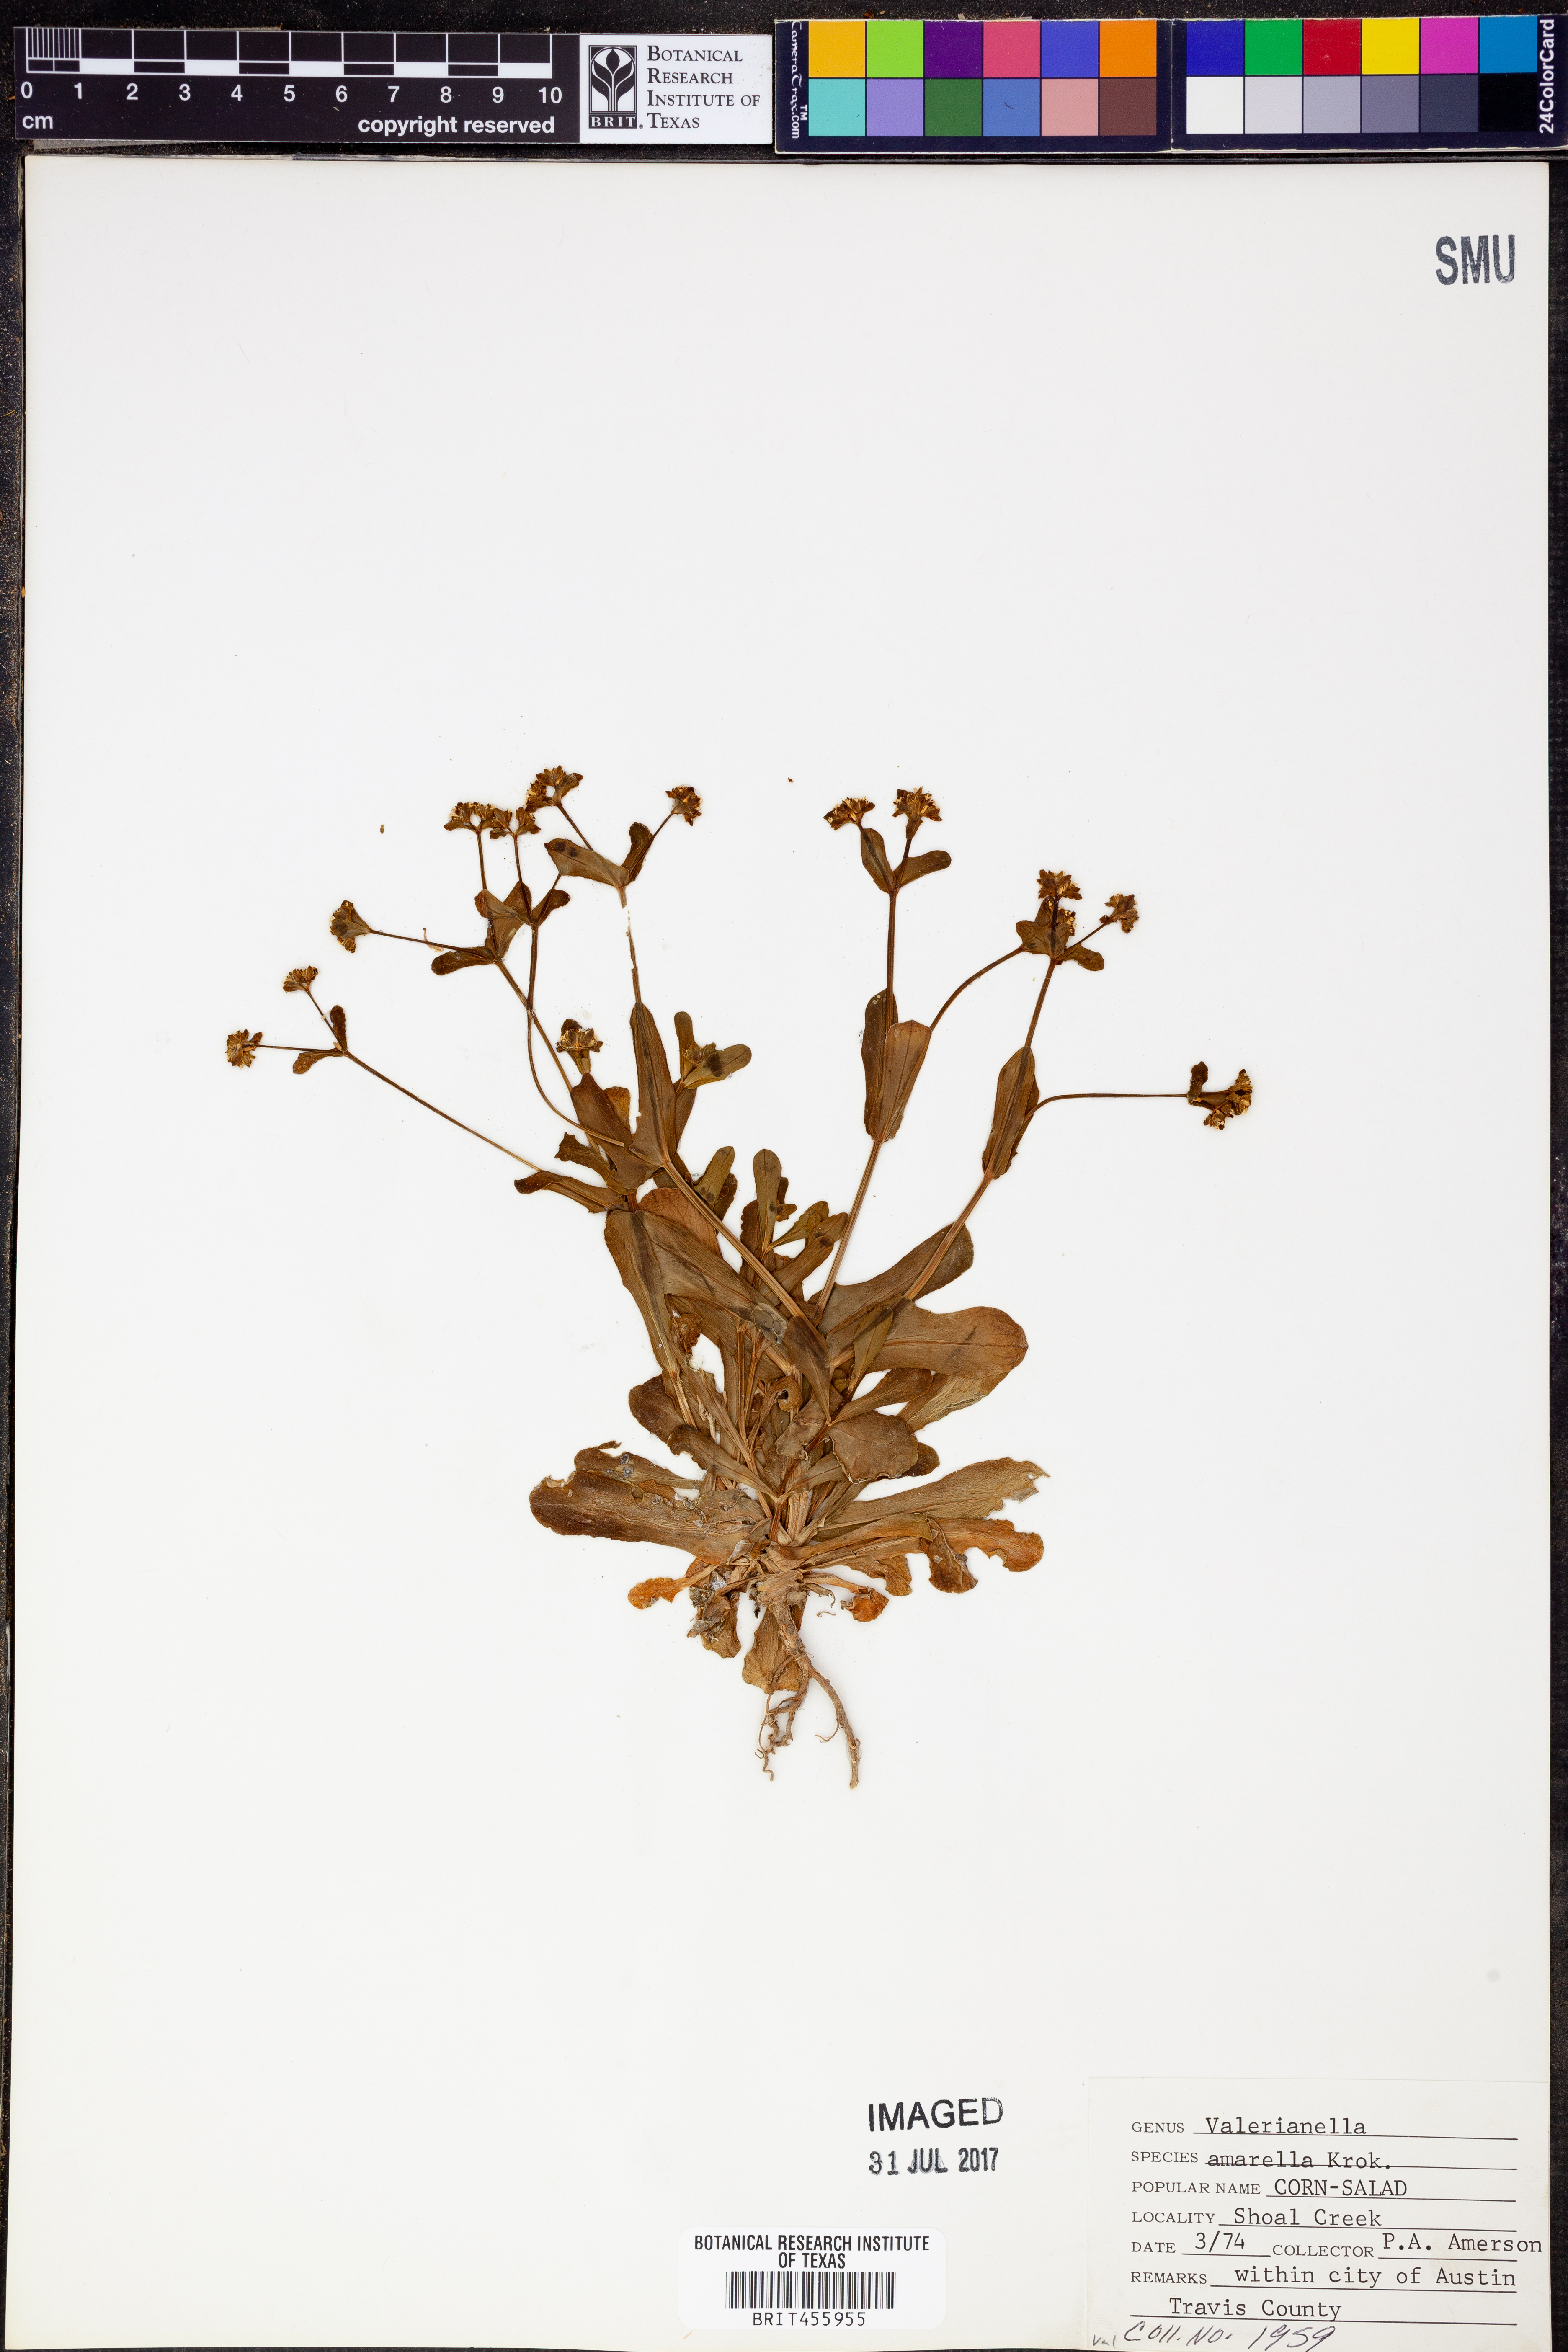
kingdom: Plantae
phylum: Tracheophyta
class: Magnoliopsida
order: Dipsacales
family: Caprifoliaceae
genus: Valerianella
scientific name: Valerianella amarella
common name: Hariy cornsalad
